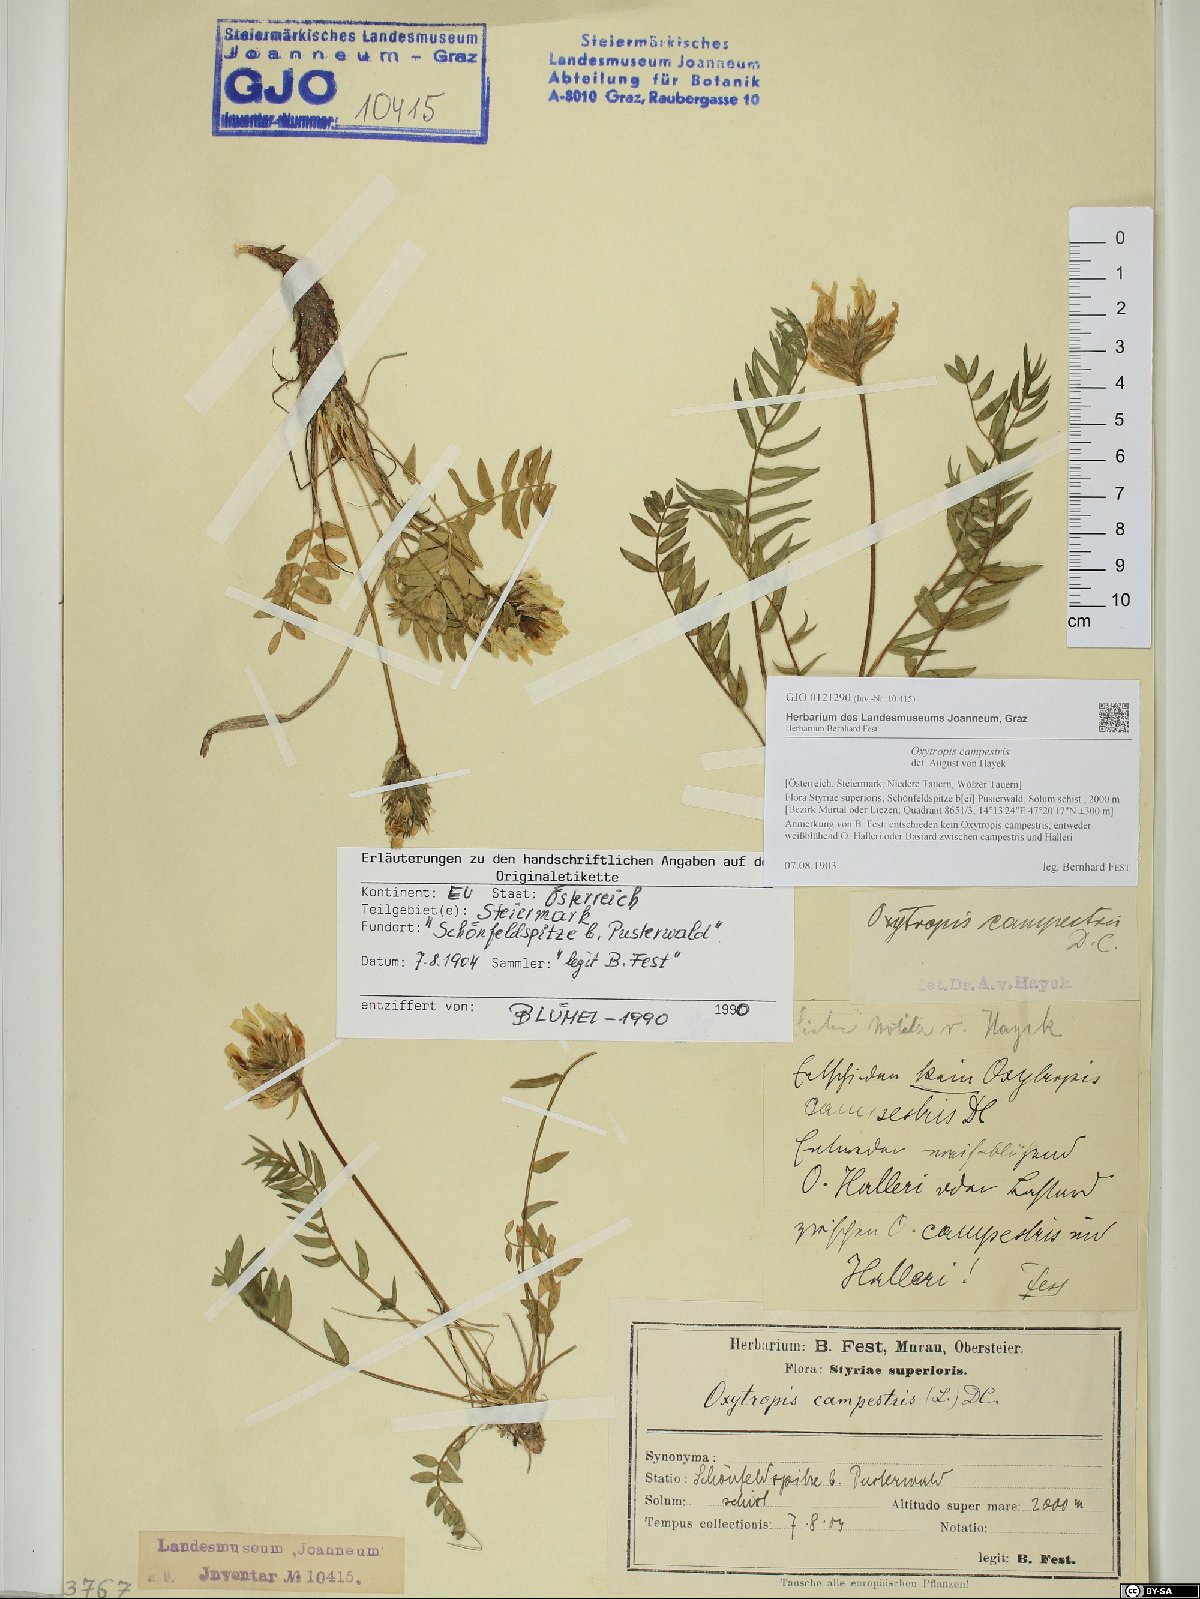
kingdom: Plantae
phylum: Tracheophyta
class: Magnoliopsida
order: Fabales
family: Fabaceae
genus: Oxytropis
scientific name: Oxytropis campestris
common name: Field locoweed
